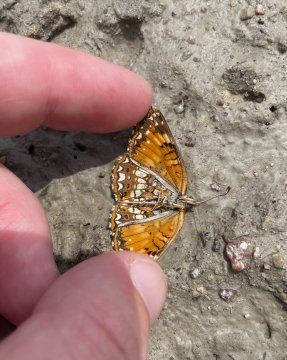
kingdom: Animalia
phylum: Arthropoda
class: Insecta
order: Lepidoptera
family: Nymphalidae
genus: Chlosyne
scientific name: Chlosyne harrisii
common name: Harris's Checkerspot
